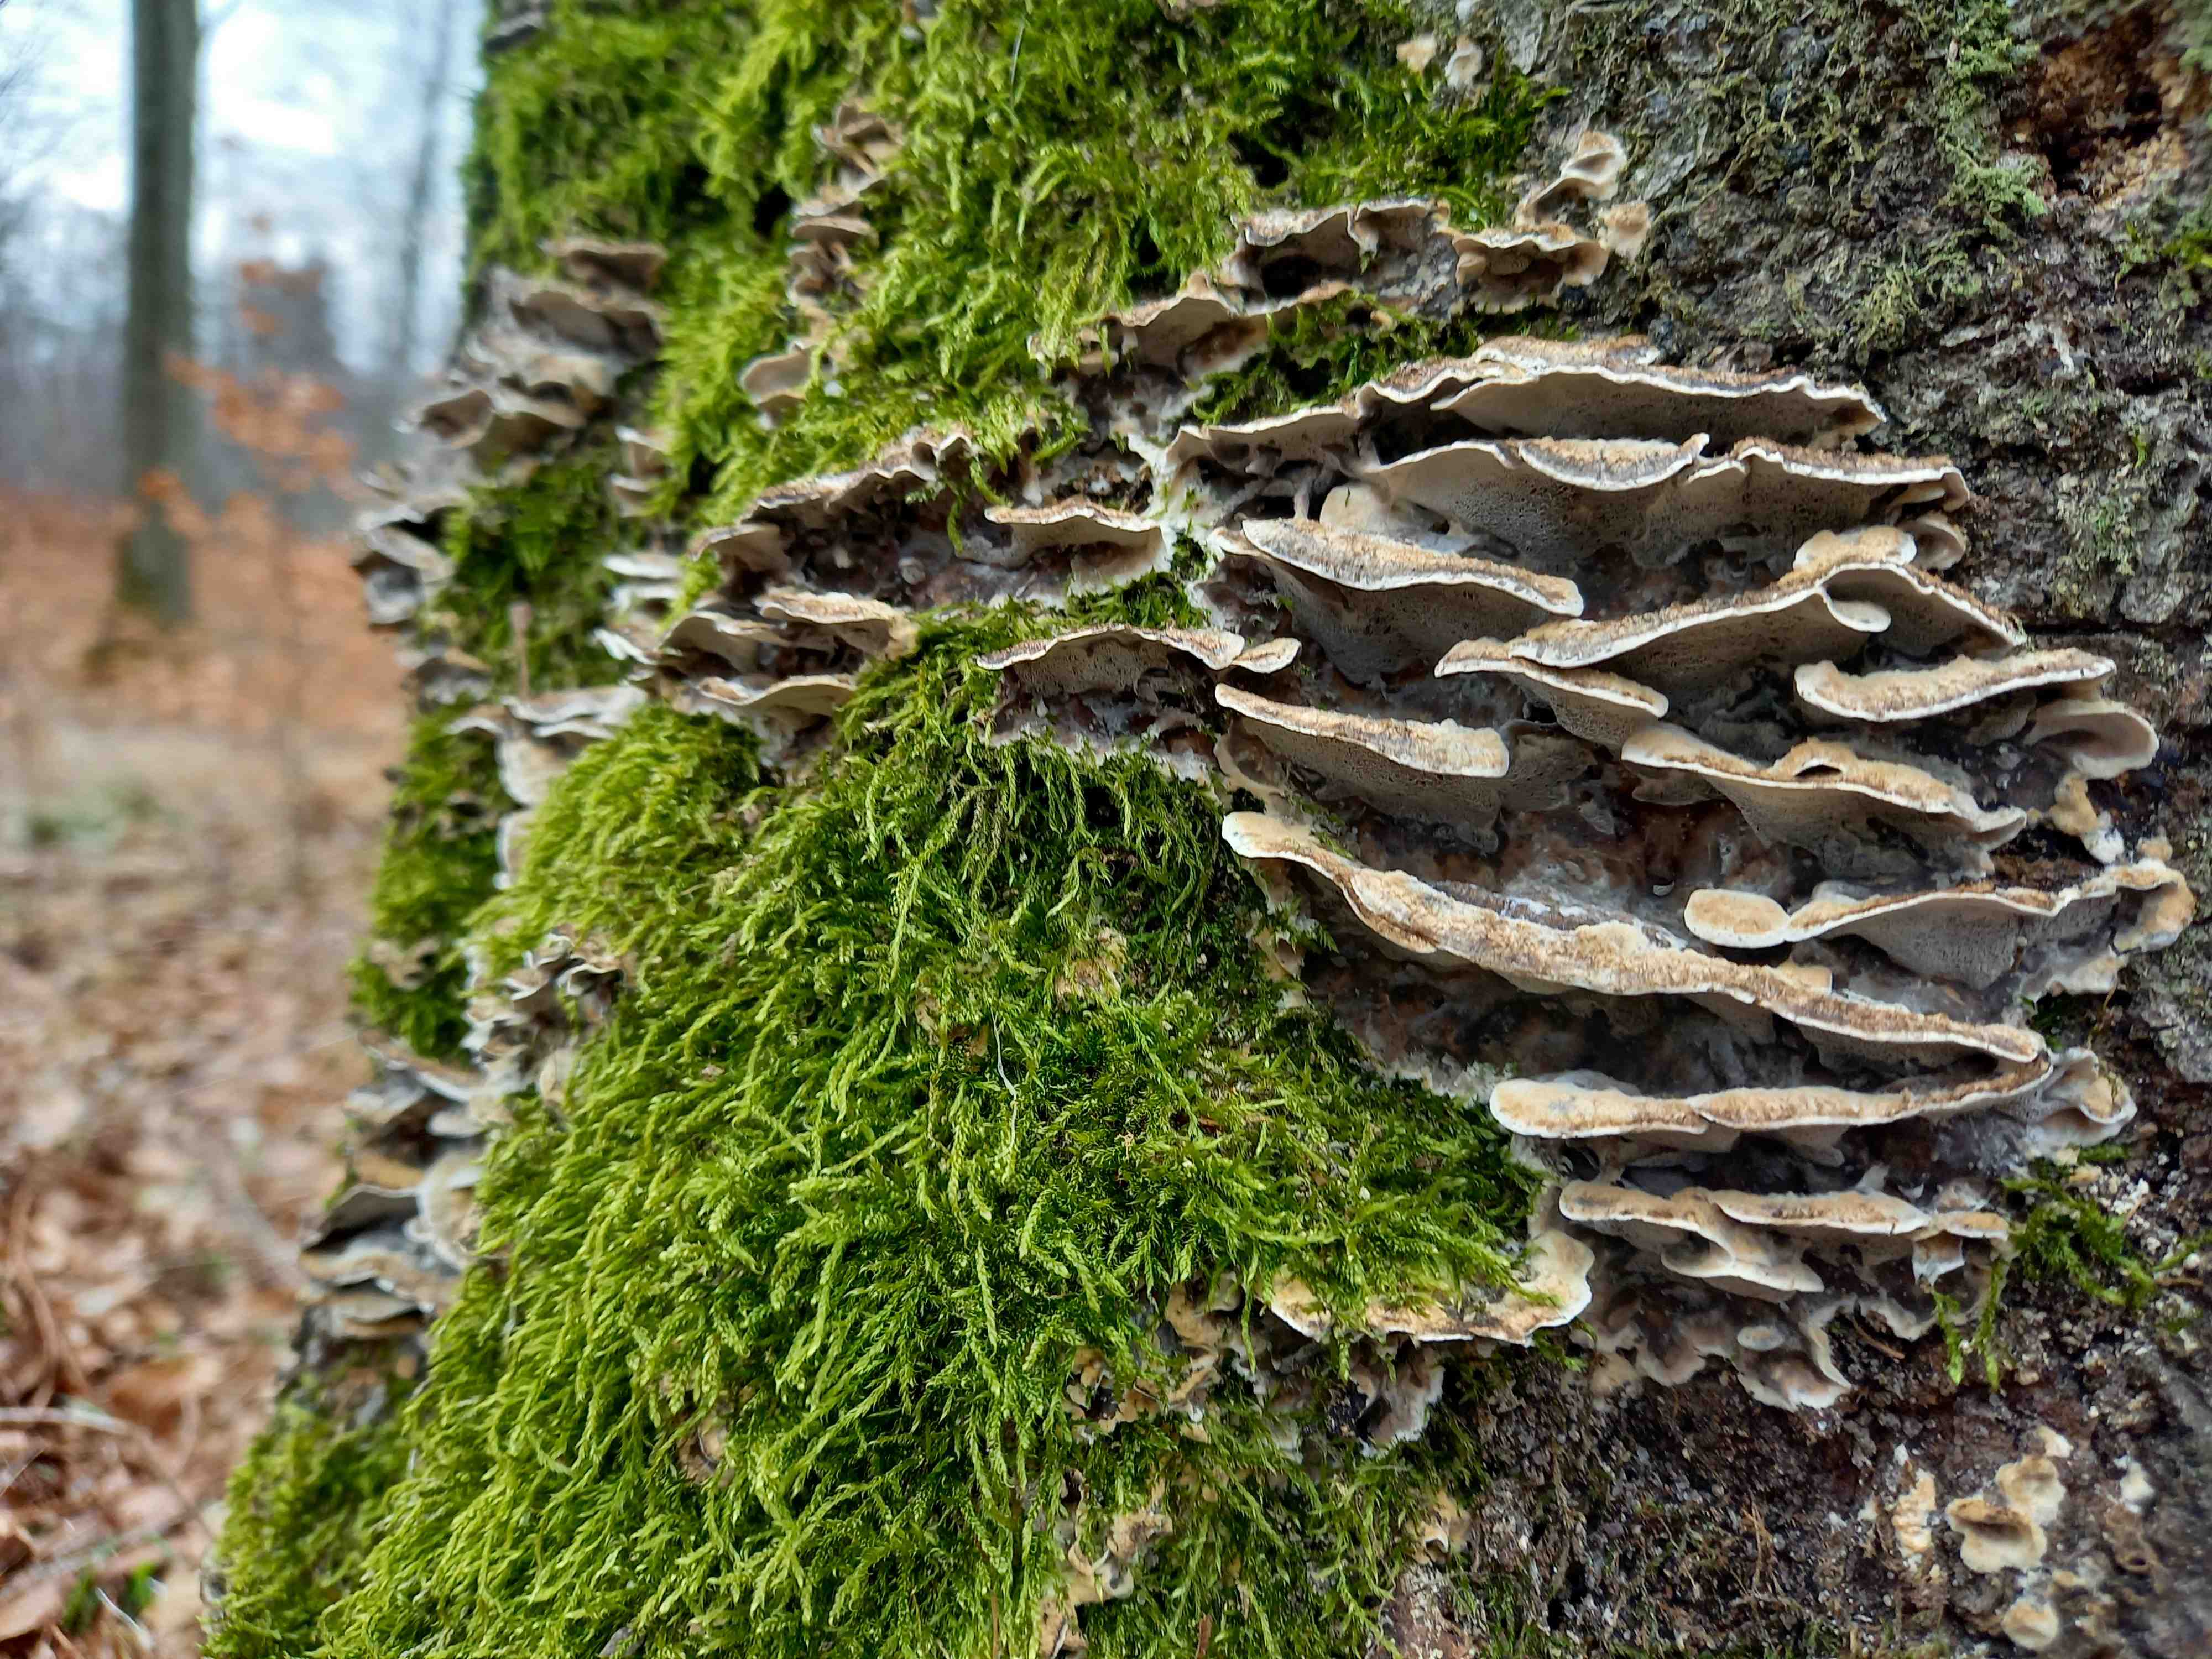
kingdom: Fungi
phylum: Basidiomycota
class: Agaricomycetes
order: Polyporales
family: Phanerochaetaceae
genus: Bjerkandera
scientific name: Bjerkandera adusta
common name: sveden sodporesvamp
